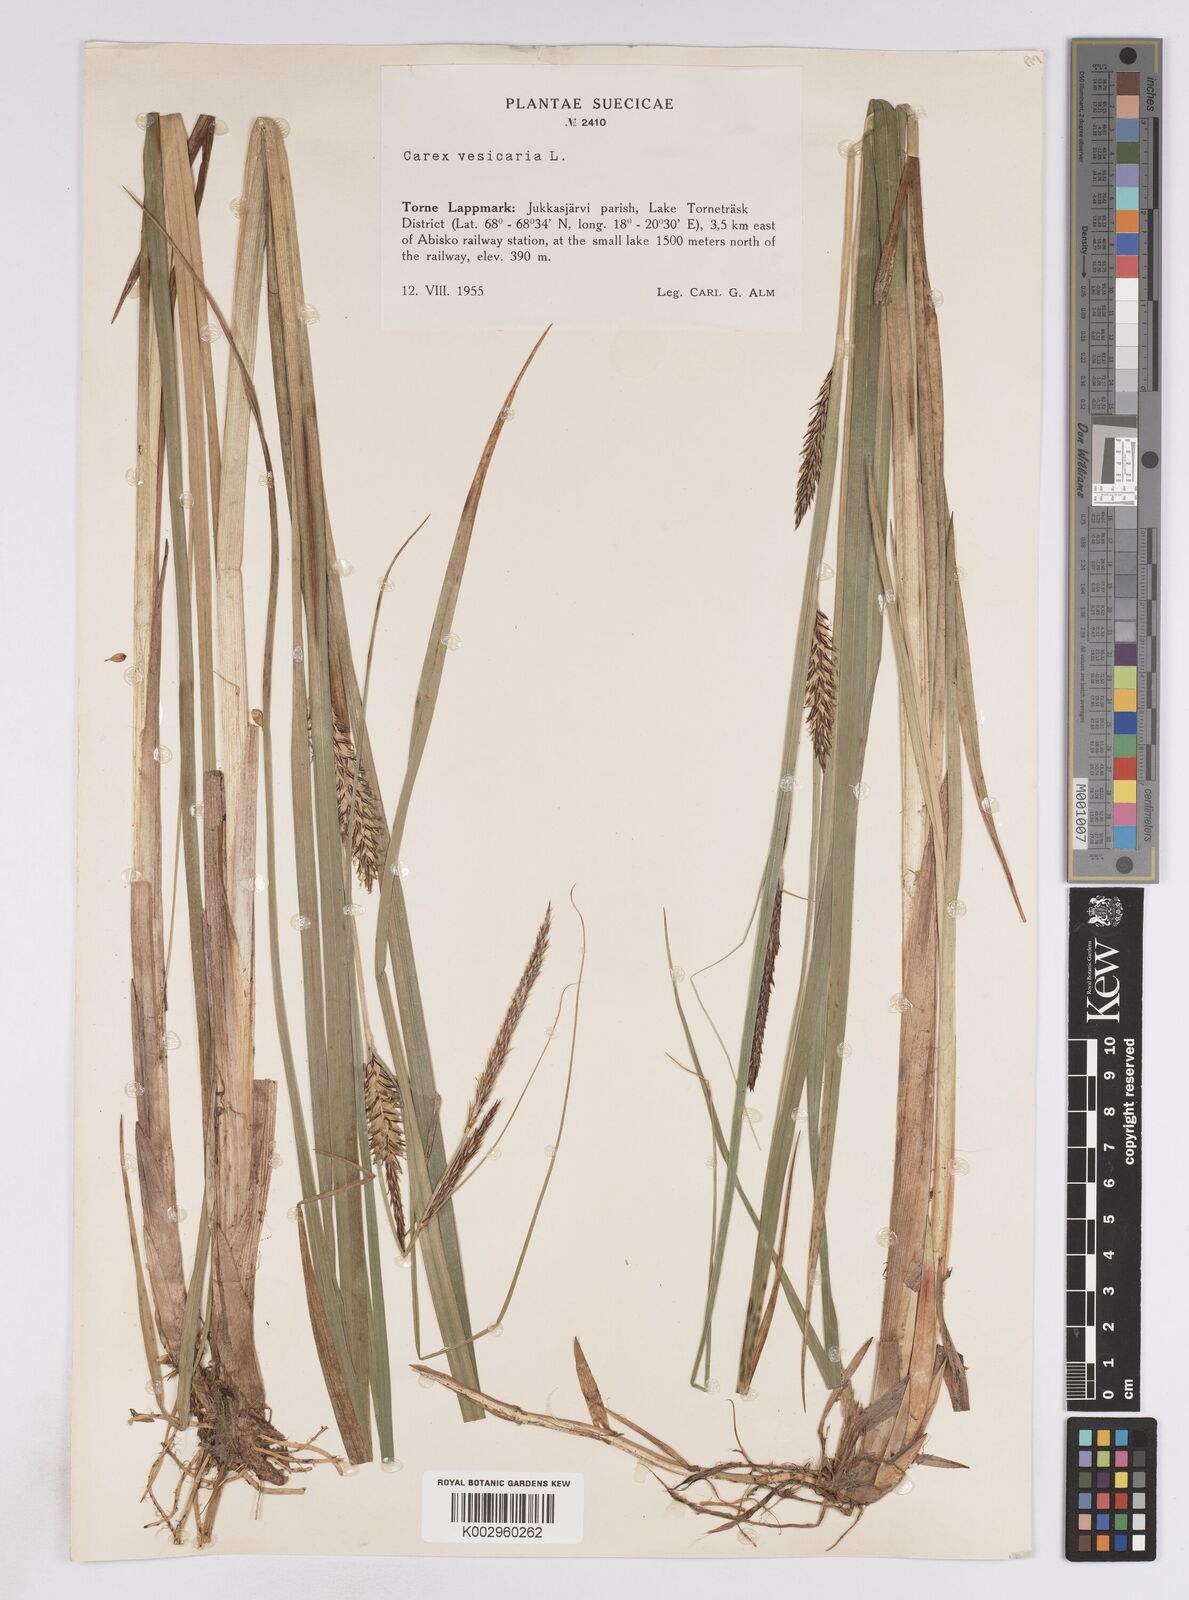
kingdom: Plantae
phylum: Tracheophyta
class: Liliopsida
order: Poales
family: Cyperaceae
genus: Carex
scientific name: Carex vesicaria
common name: Bladder-sedge
